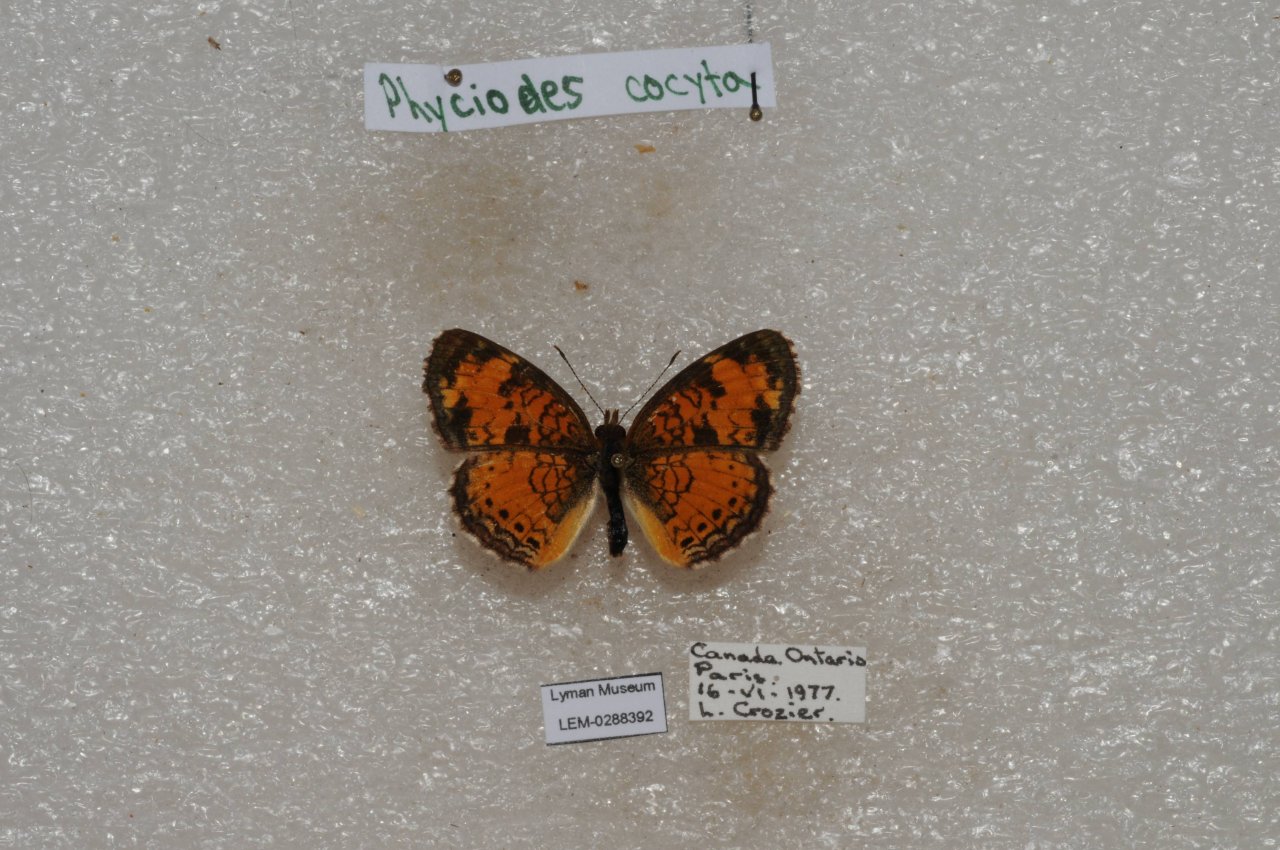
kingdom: Animalia
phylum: Arthropoda
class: Insecta
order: Lepidoptera
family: Nymphalidae
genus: Phyciodes
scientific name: Phyciodes tharos
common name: Northern Crescent
